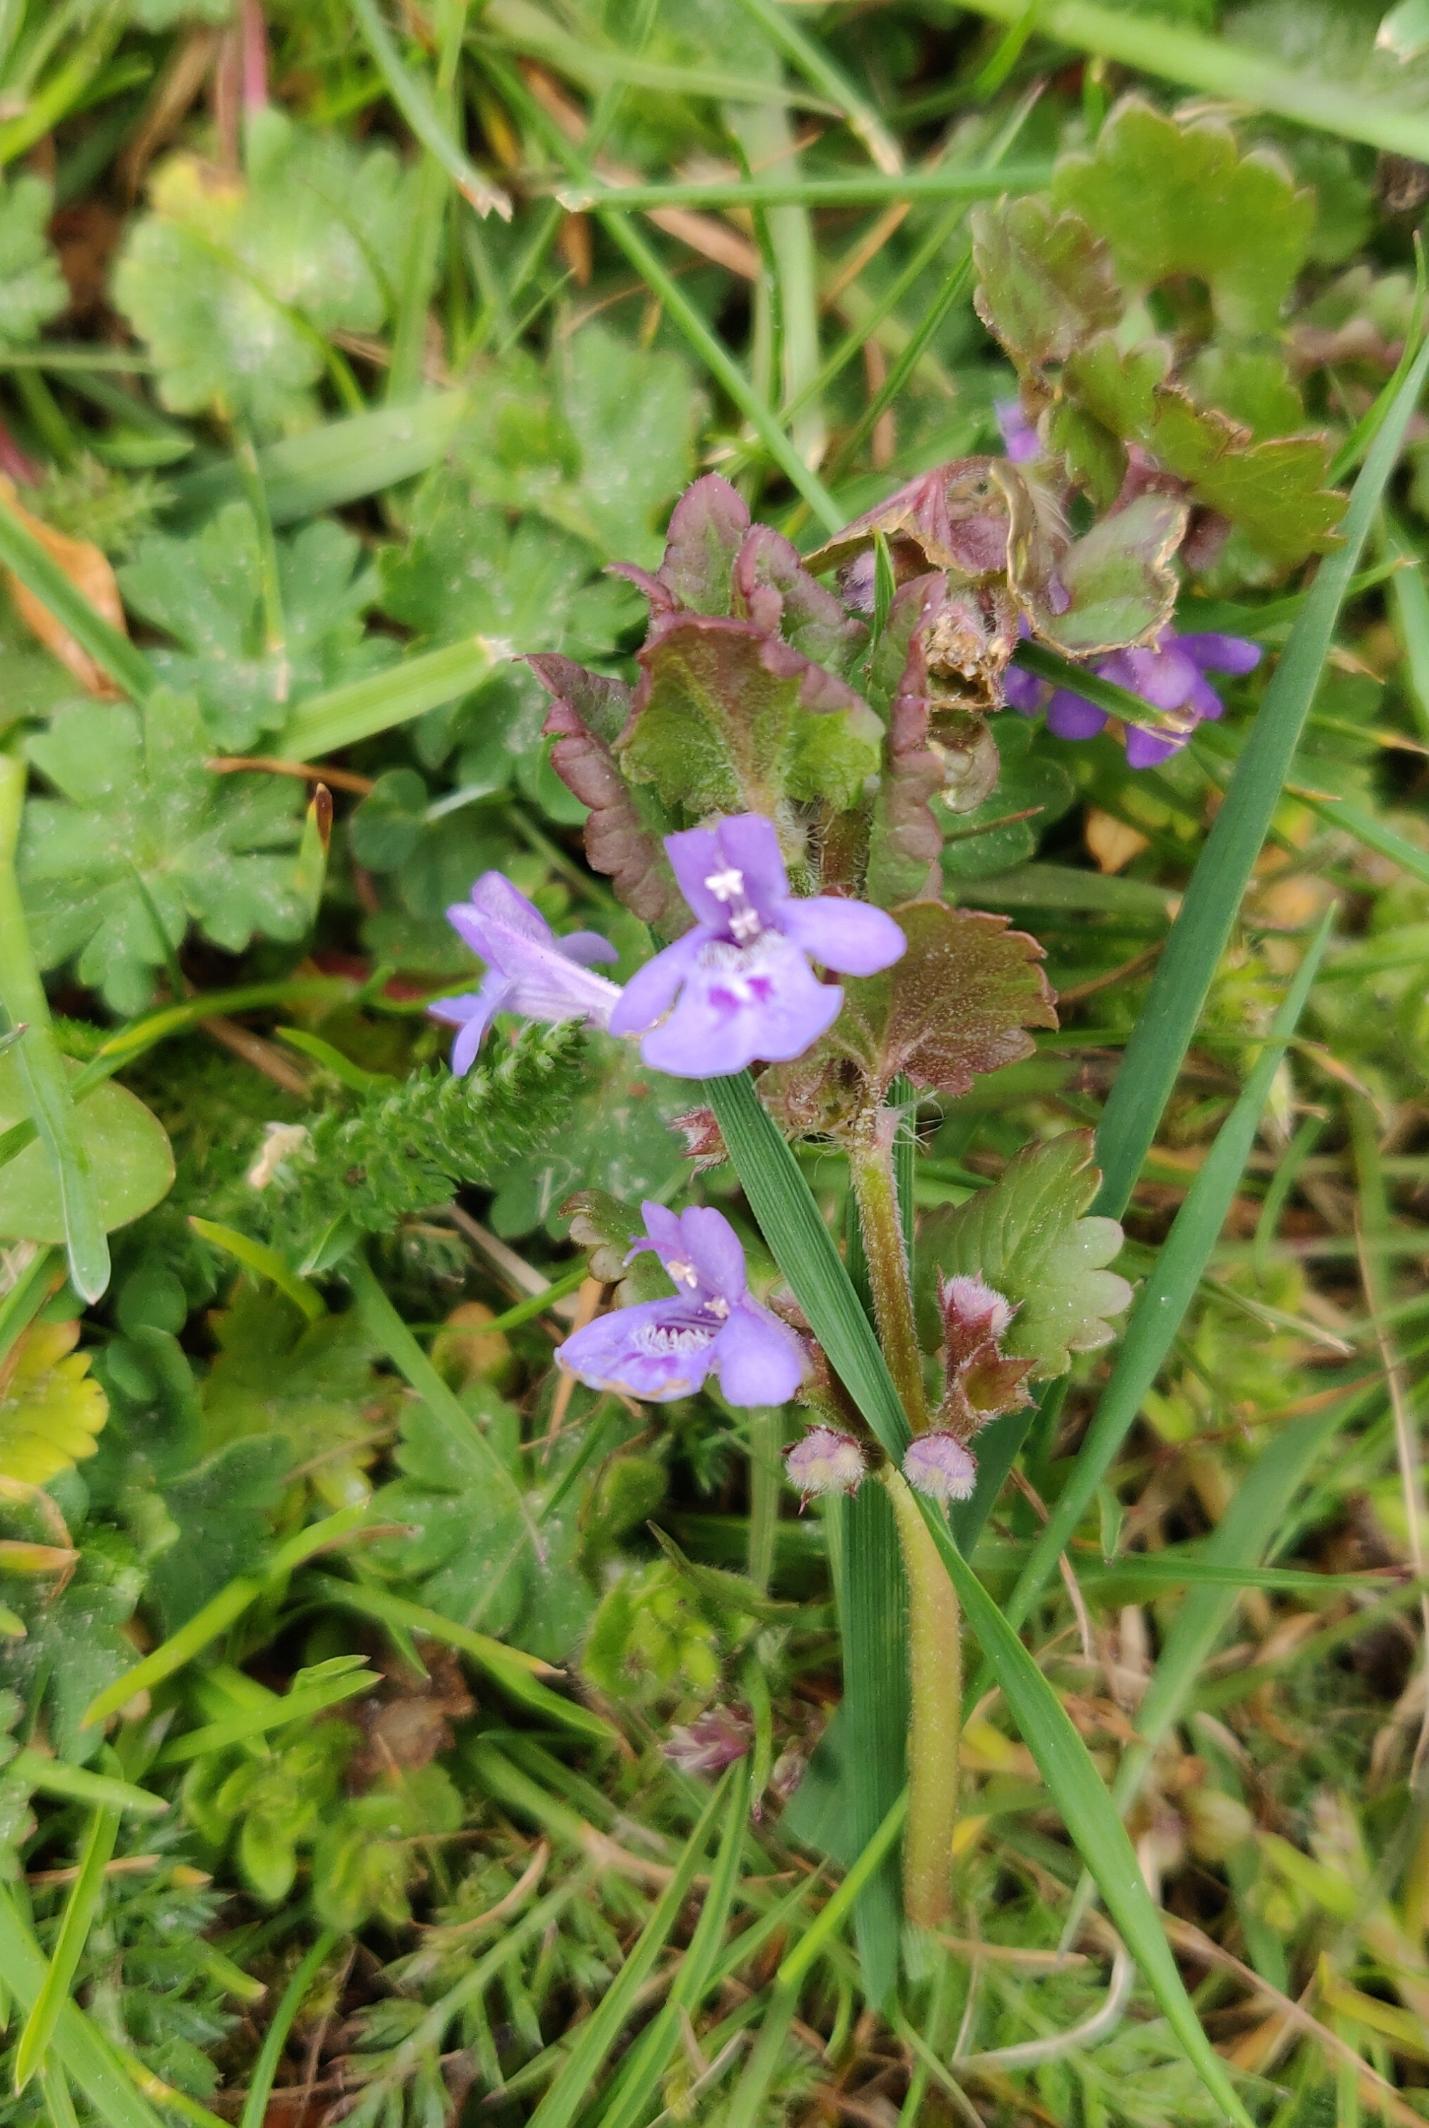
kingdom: Plantae
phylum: Tracheophyta
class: Magnoliopsida
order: Lamiales
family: Lamiaceae
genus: Glechoma
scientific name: Glechoma hederacea
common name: Korsknap
